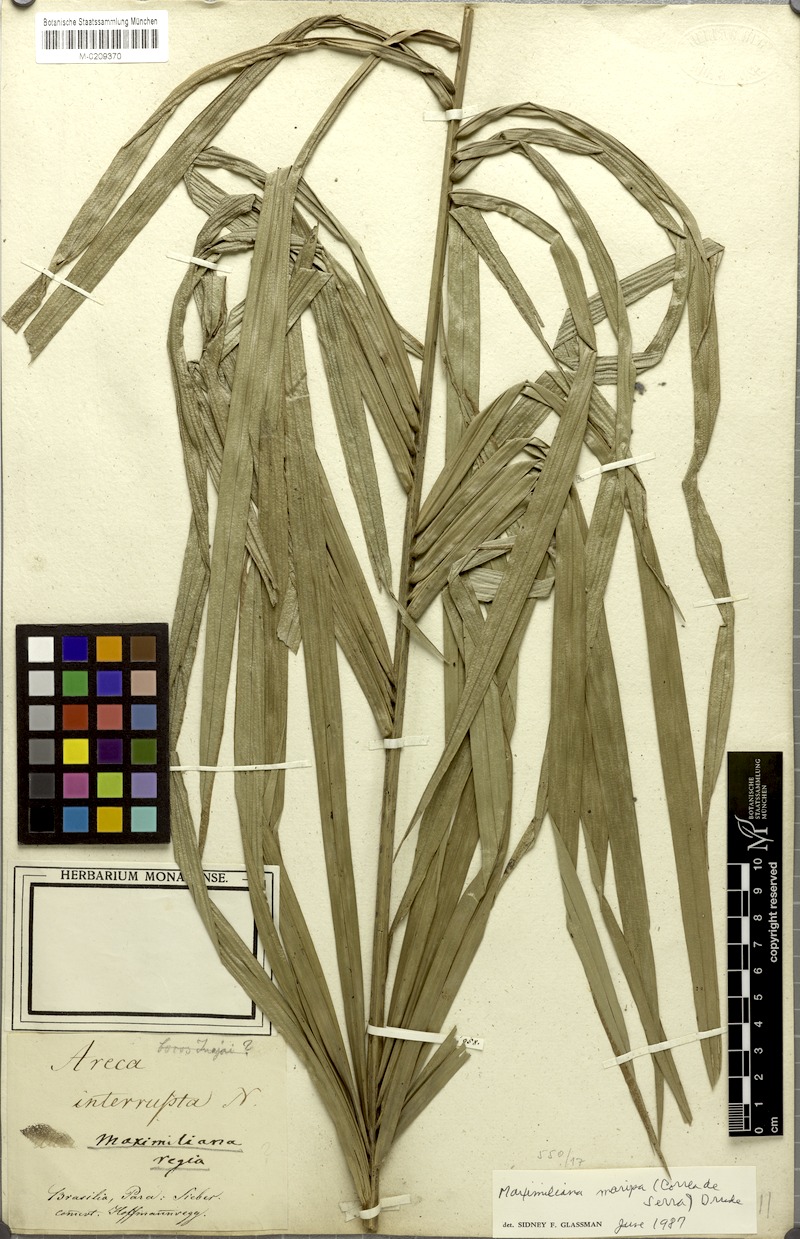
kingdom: Plantae
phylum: Tracheophyta
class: Liliopsida
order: Arecales
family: Arecaceae
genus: Attalea
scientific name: Attalea maripa
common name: Maripa palm
